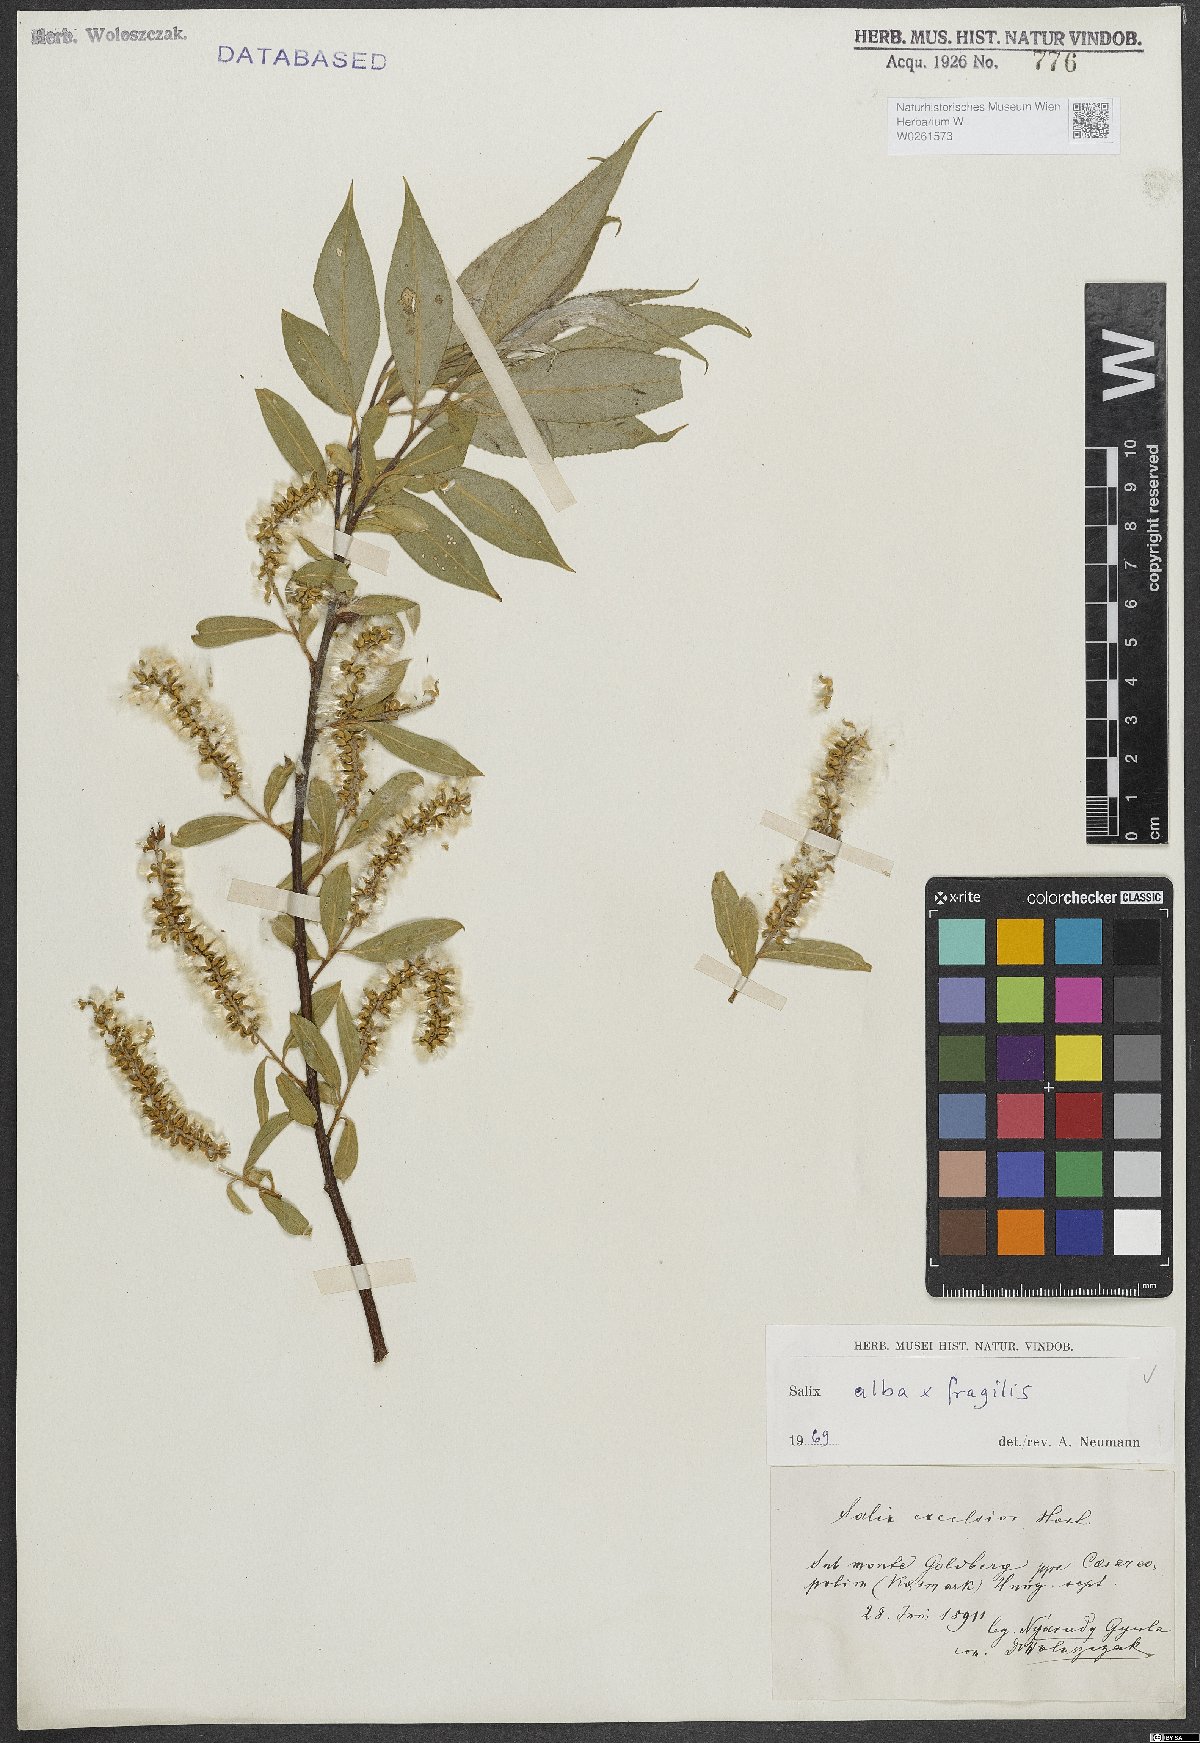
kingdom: Plantae
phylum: Tracheophyta
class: Magnoliopsida
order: Malpighiales
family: Salicaceae
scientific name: Salicaceae
